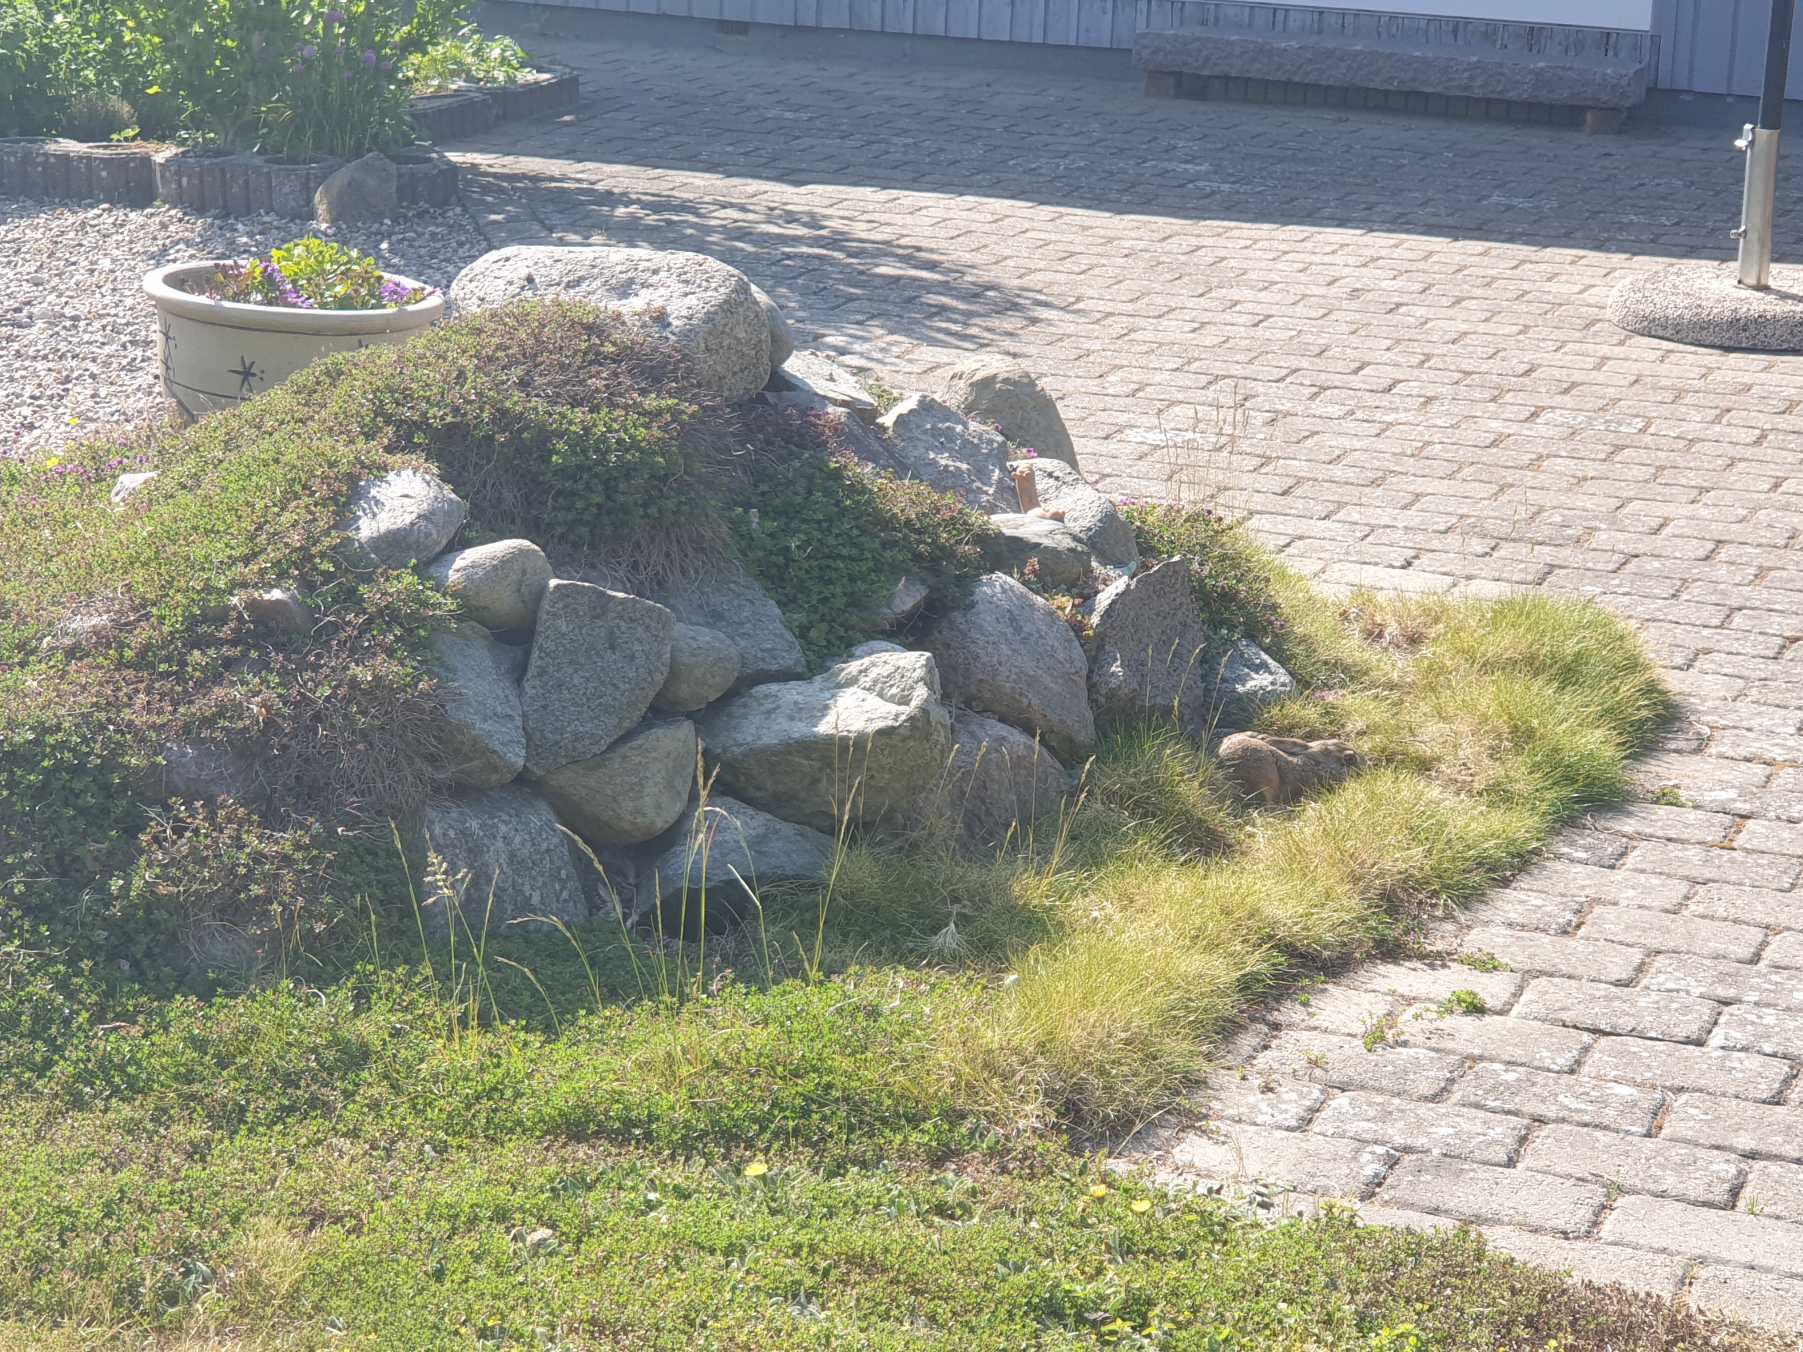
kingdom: Animalia
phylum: Chordata
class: Mammalia
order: Lagomorpha
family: Leporidae
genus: Lepus
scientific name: Lepus europaeus
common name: Hare
